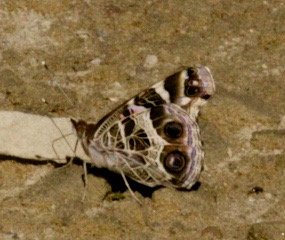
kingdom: Animalia
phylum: Arthropoda
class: Insecta
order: Lepidoptera
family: Nymphalidae
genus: Vanessa
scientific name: Vanessa virginiensis
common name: American Lady
